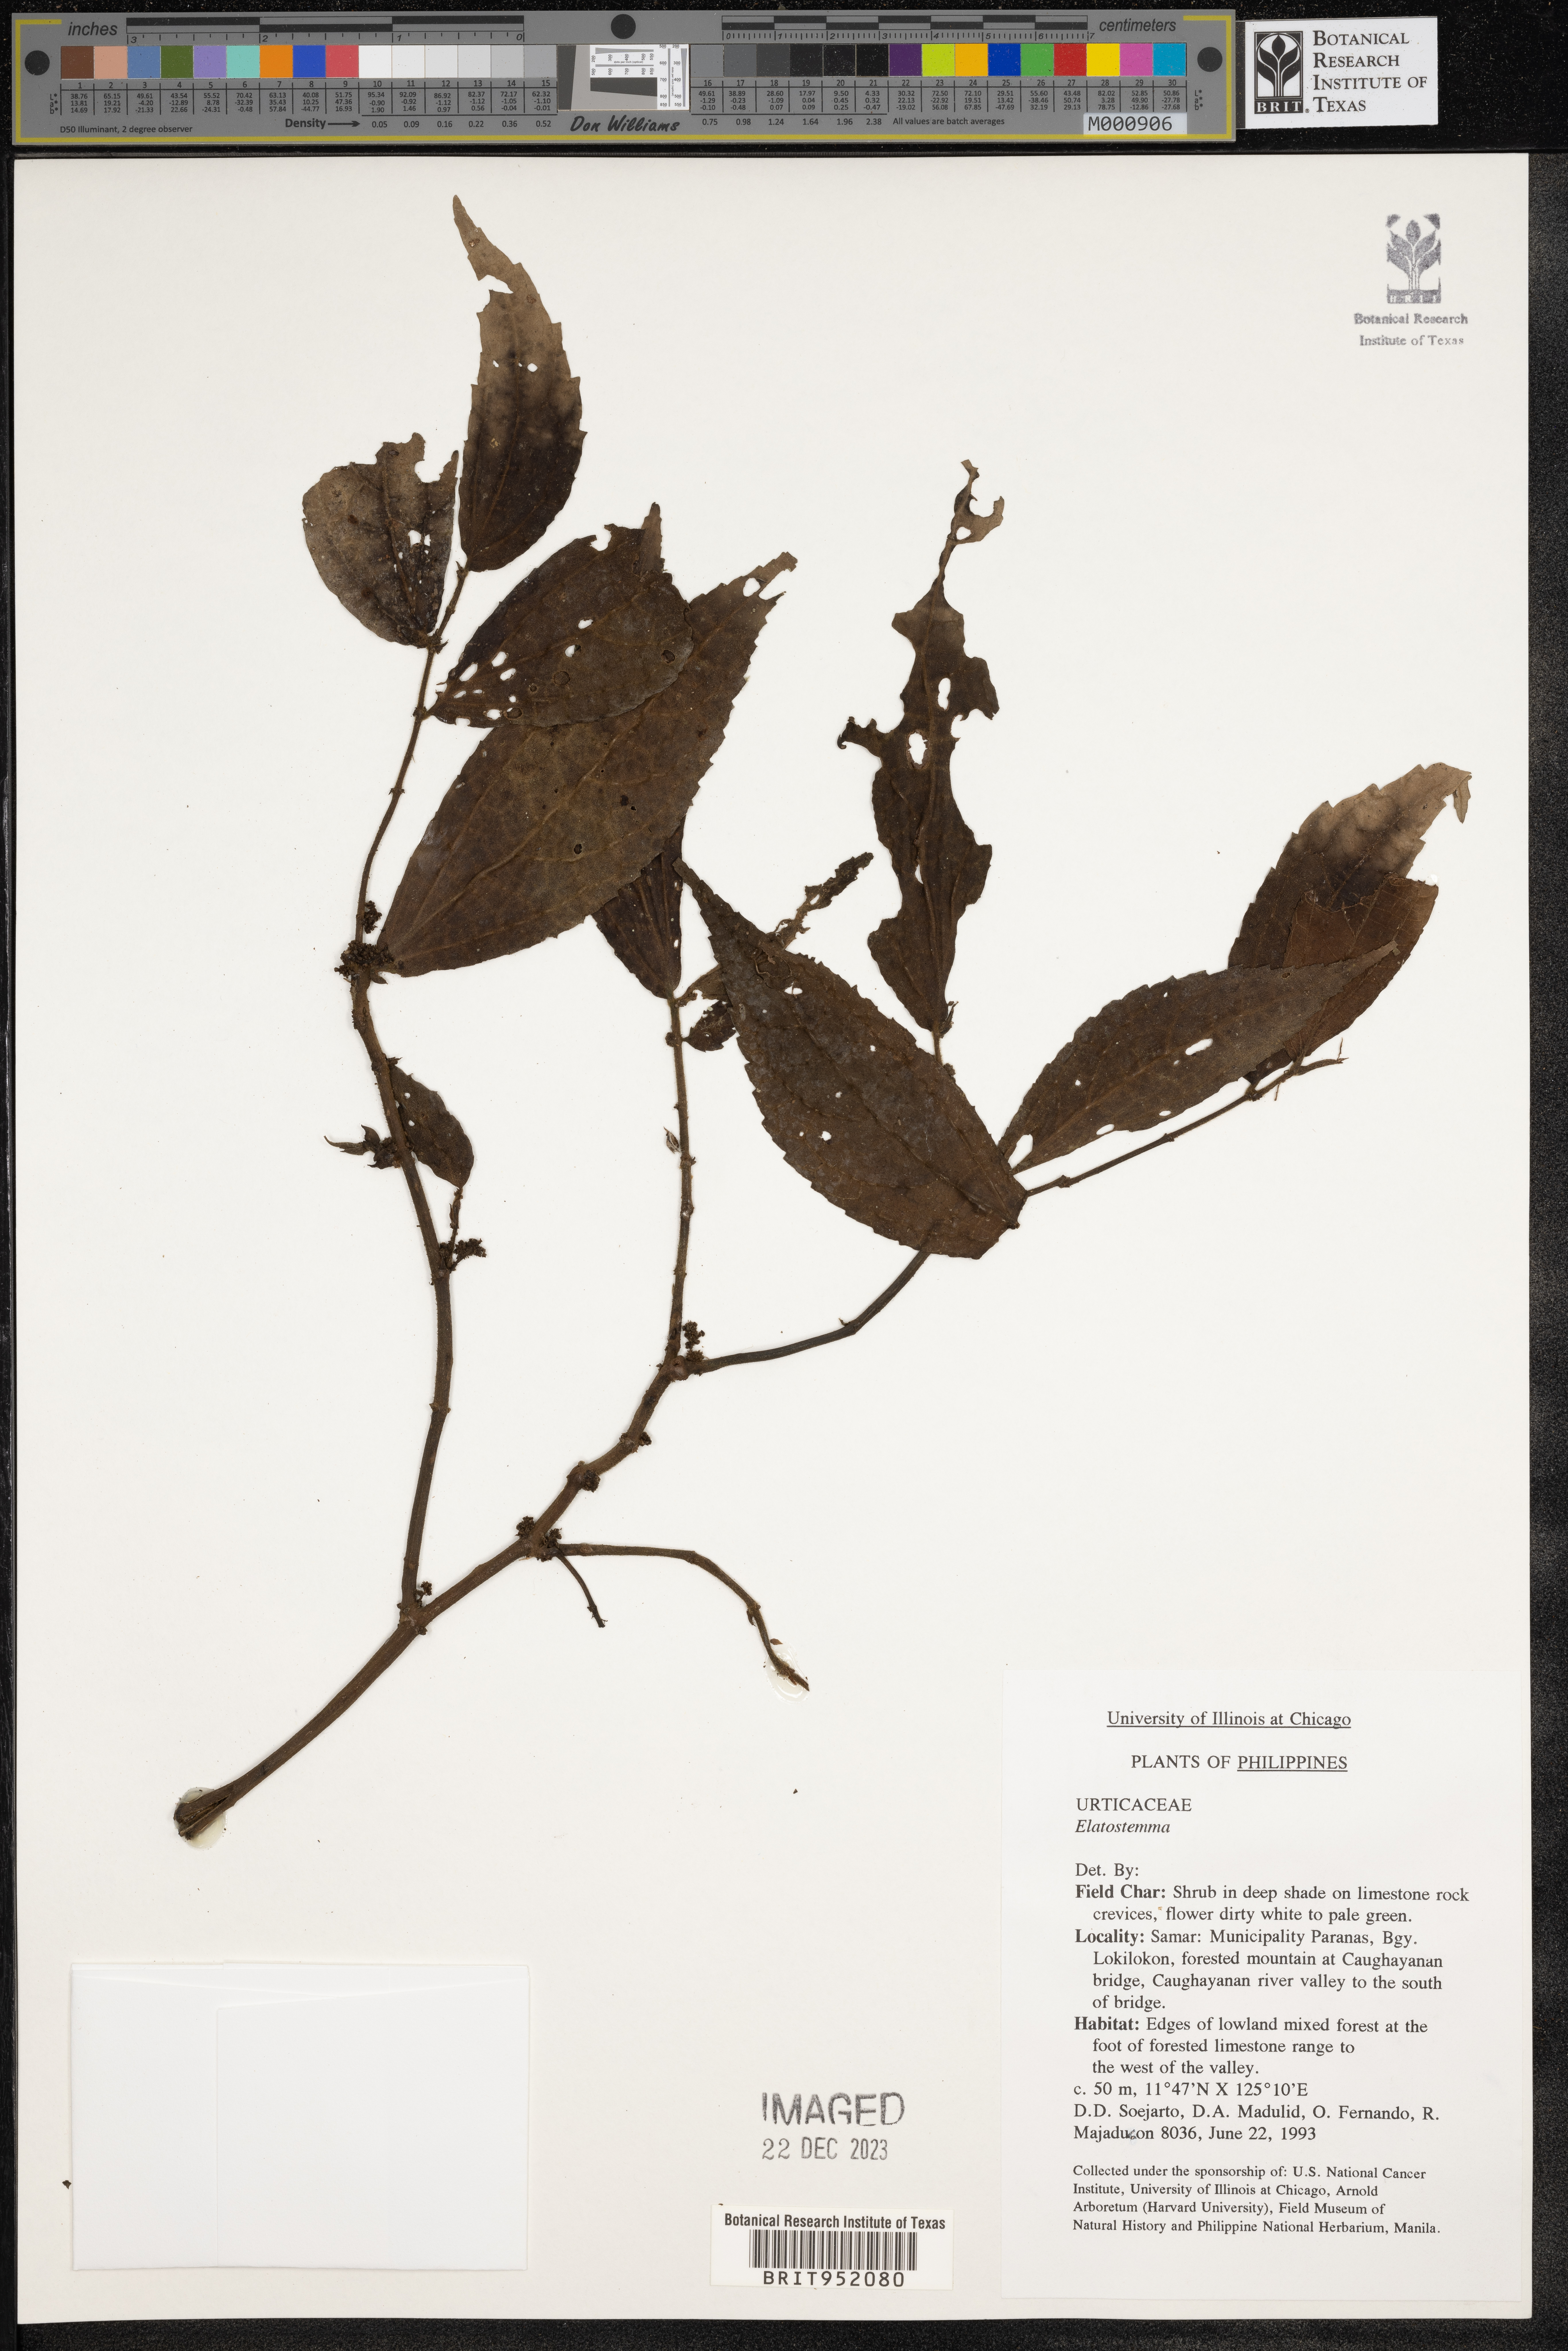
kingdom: Plantae
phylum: Tracheophyta
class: Magnoliopsida
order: Rosales
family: Urticaceae
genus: Elatostema
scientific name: Elatostema
